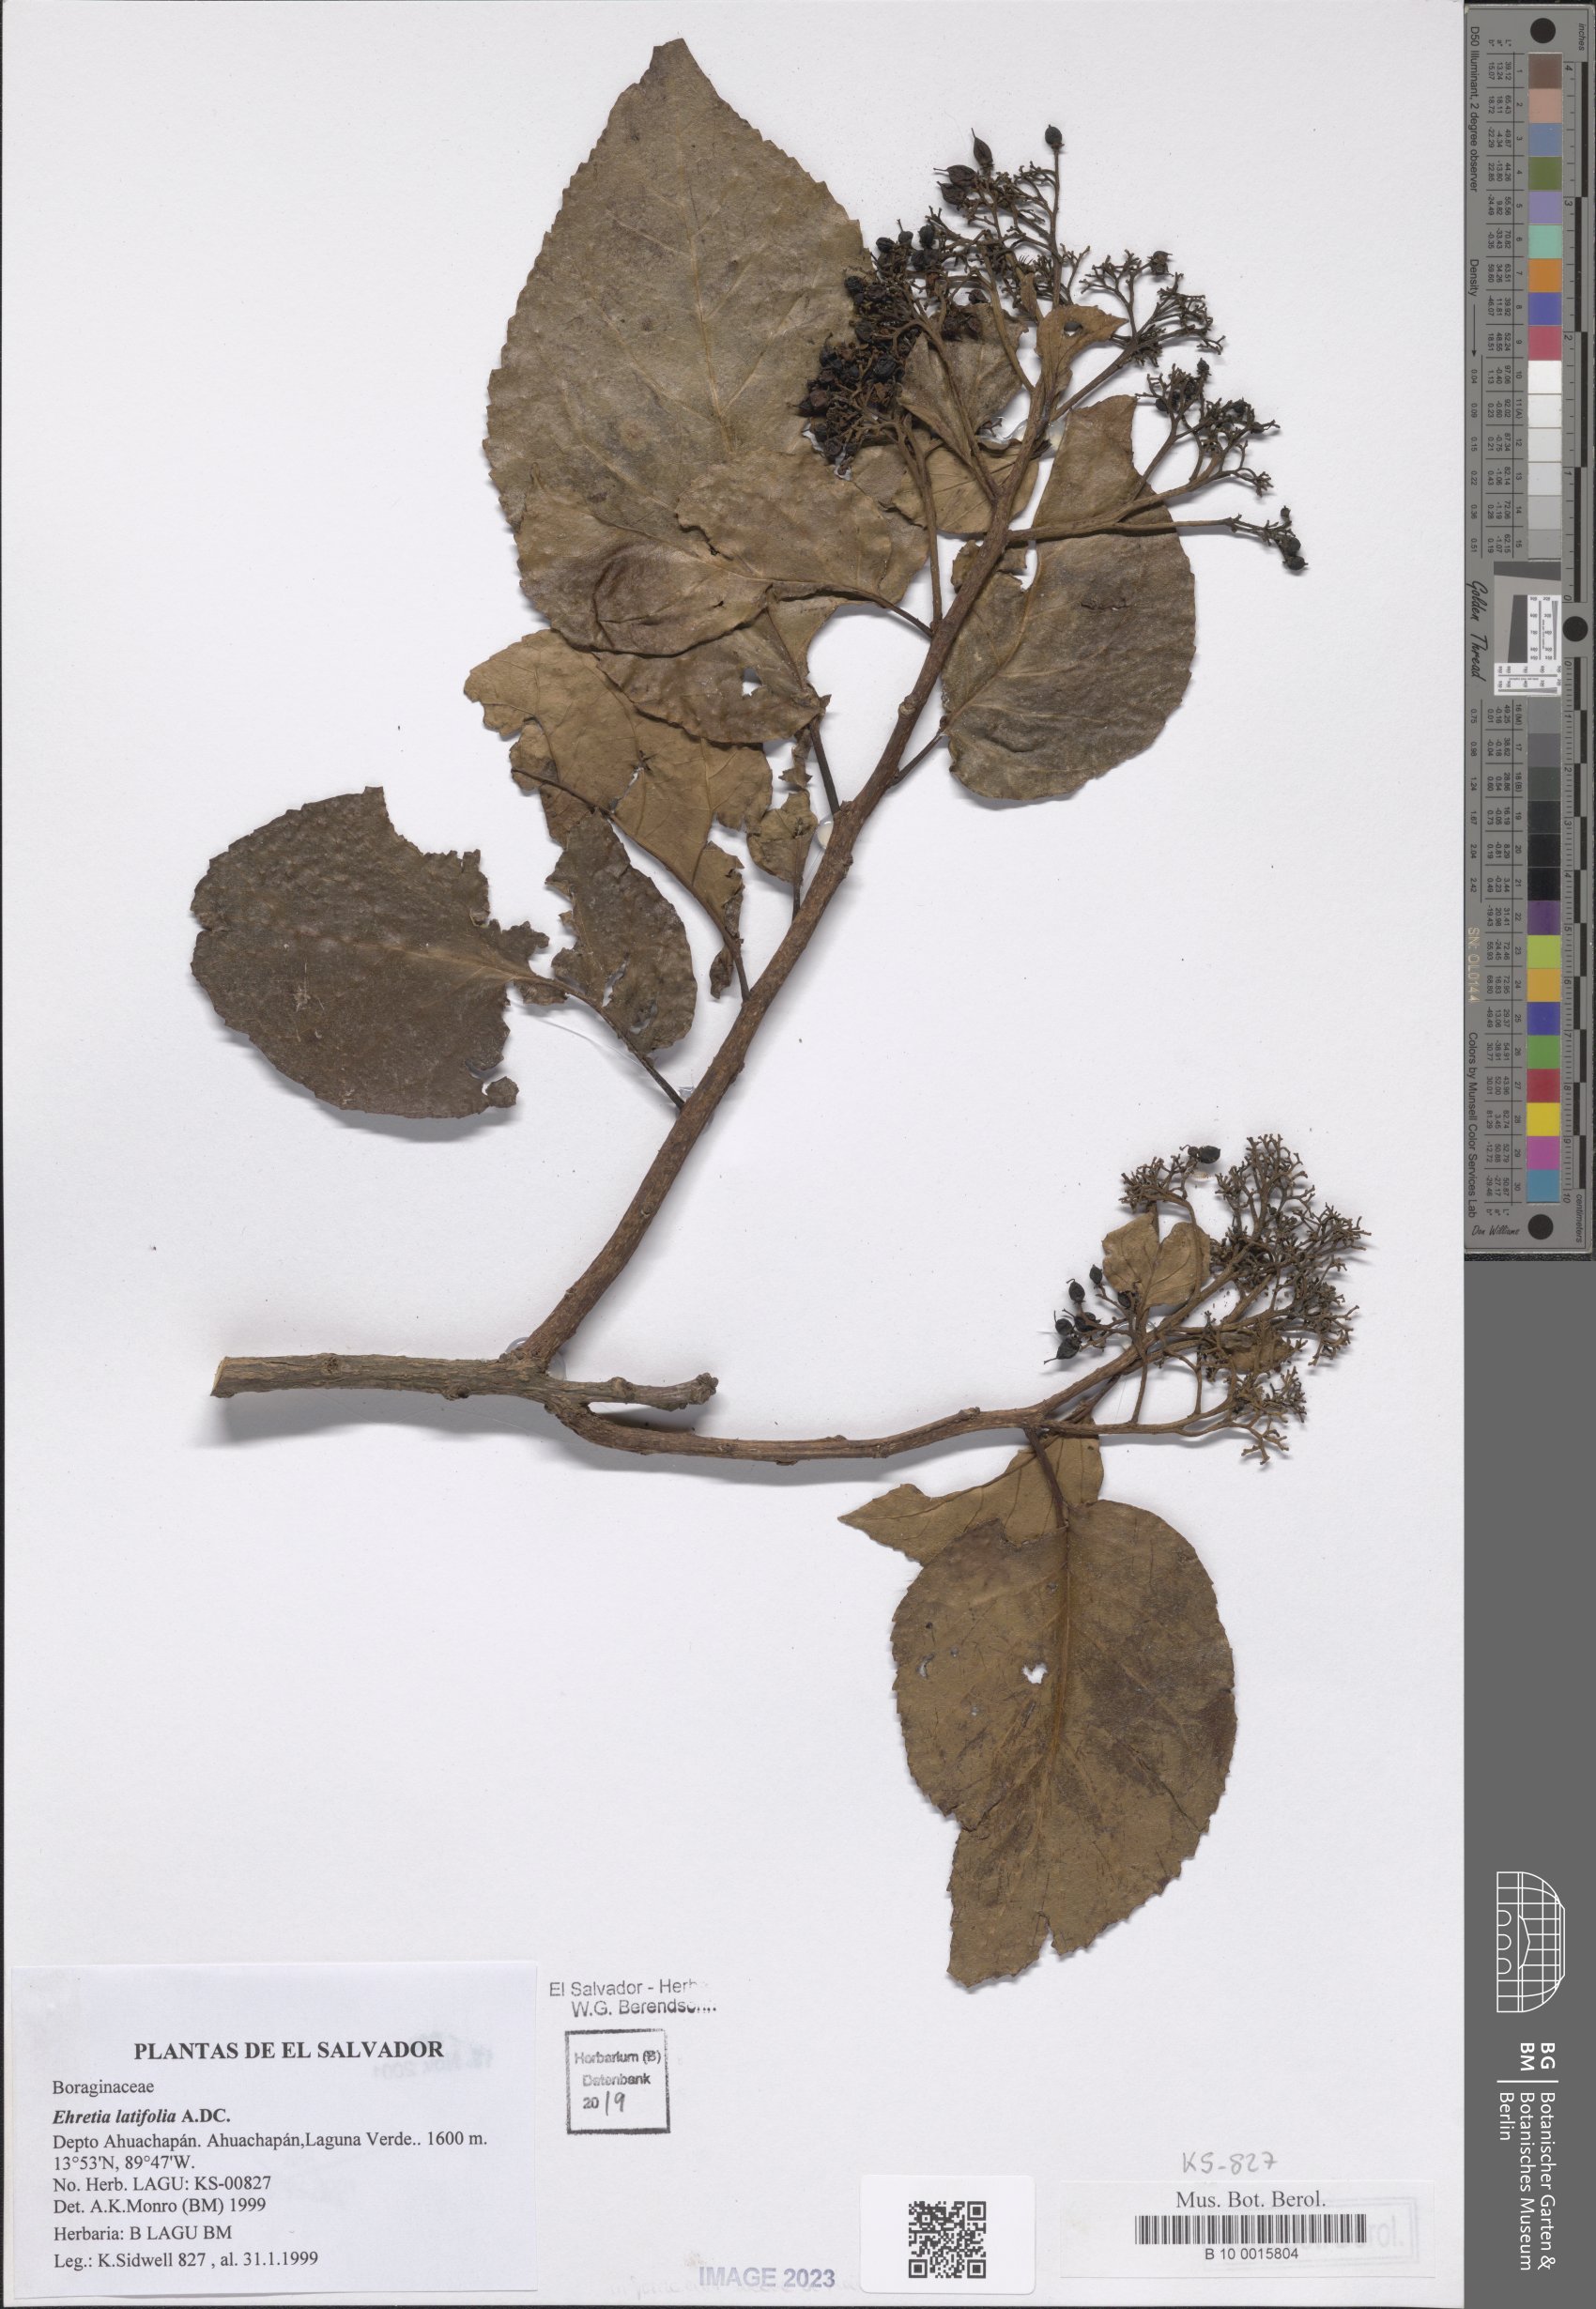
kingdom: Plantae
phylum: Tracheophyta
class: Magnoliopsida
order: Boraginales
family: Ehretiaceae
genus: Ehretia
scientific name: Ehretia latifolia
